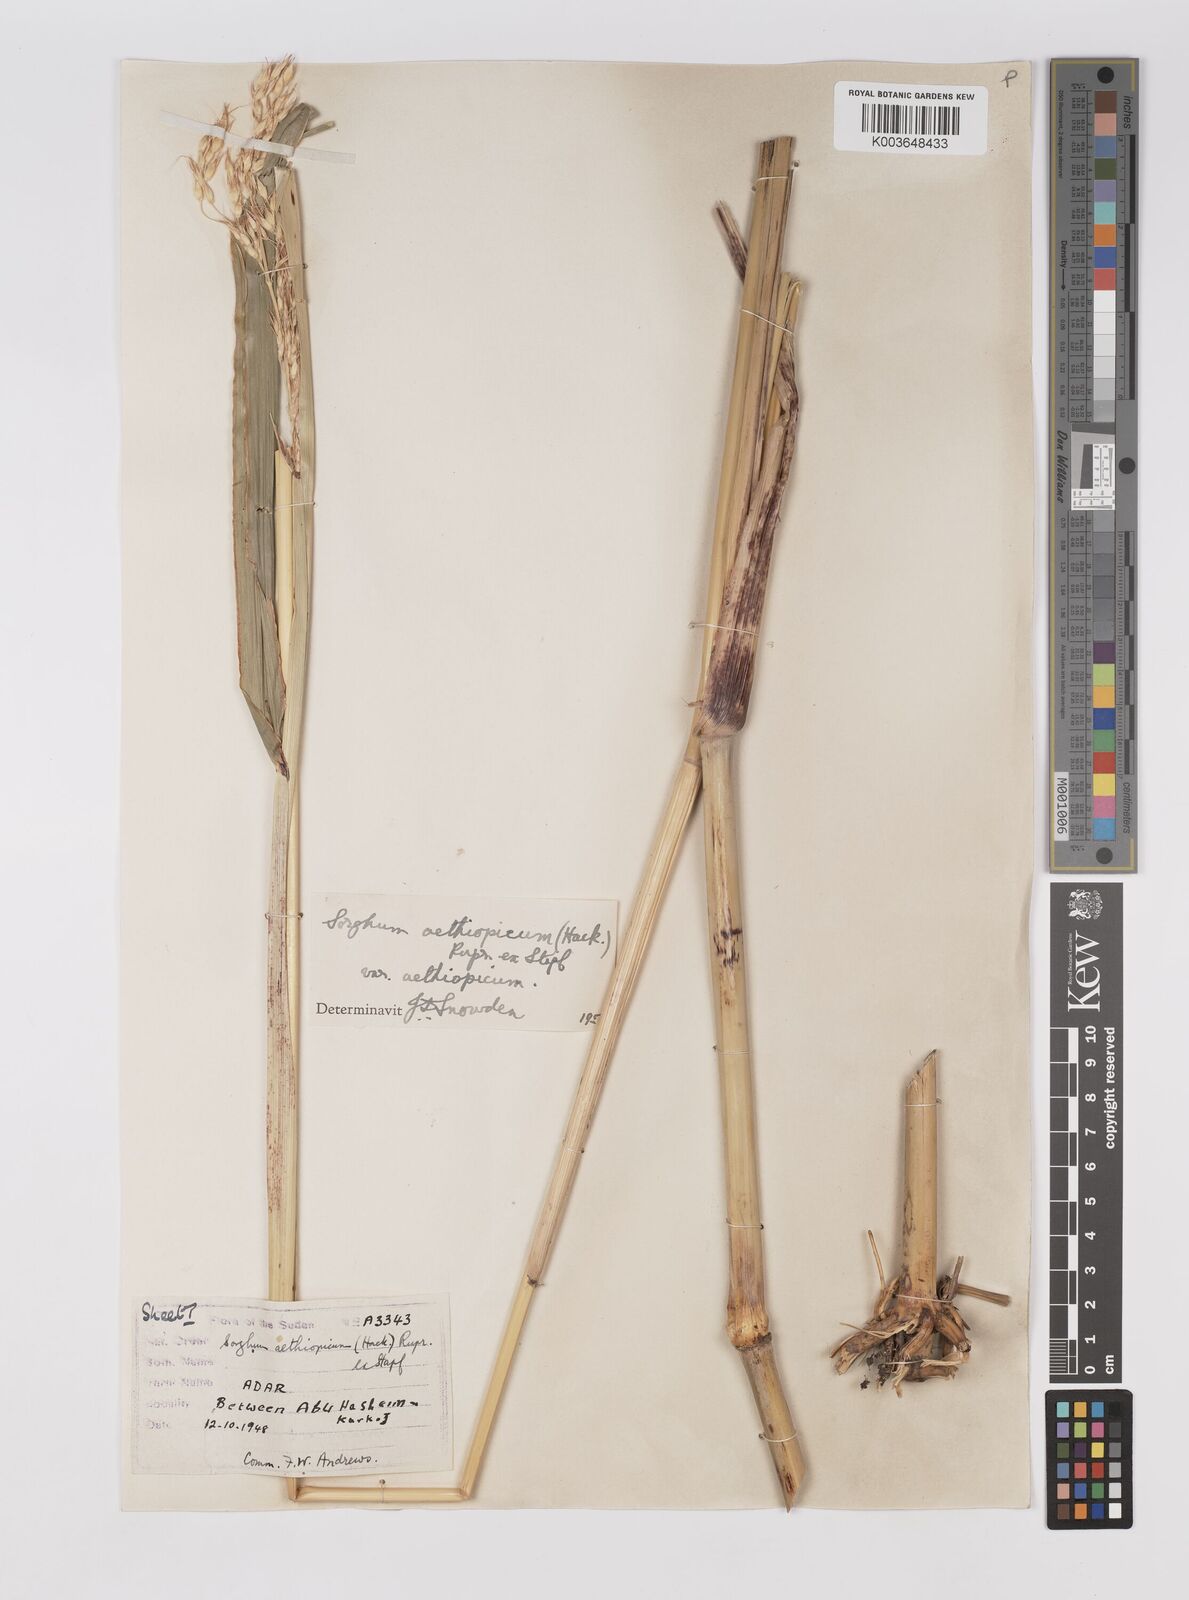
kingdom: Plantae
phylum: Tracheophyta
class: Liliopsida
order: Poales
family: Poaceae
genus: Sorghum
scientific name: Sorghum arundinaceum
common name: Sorghum
